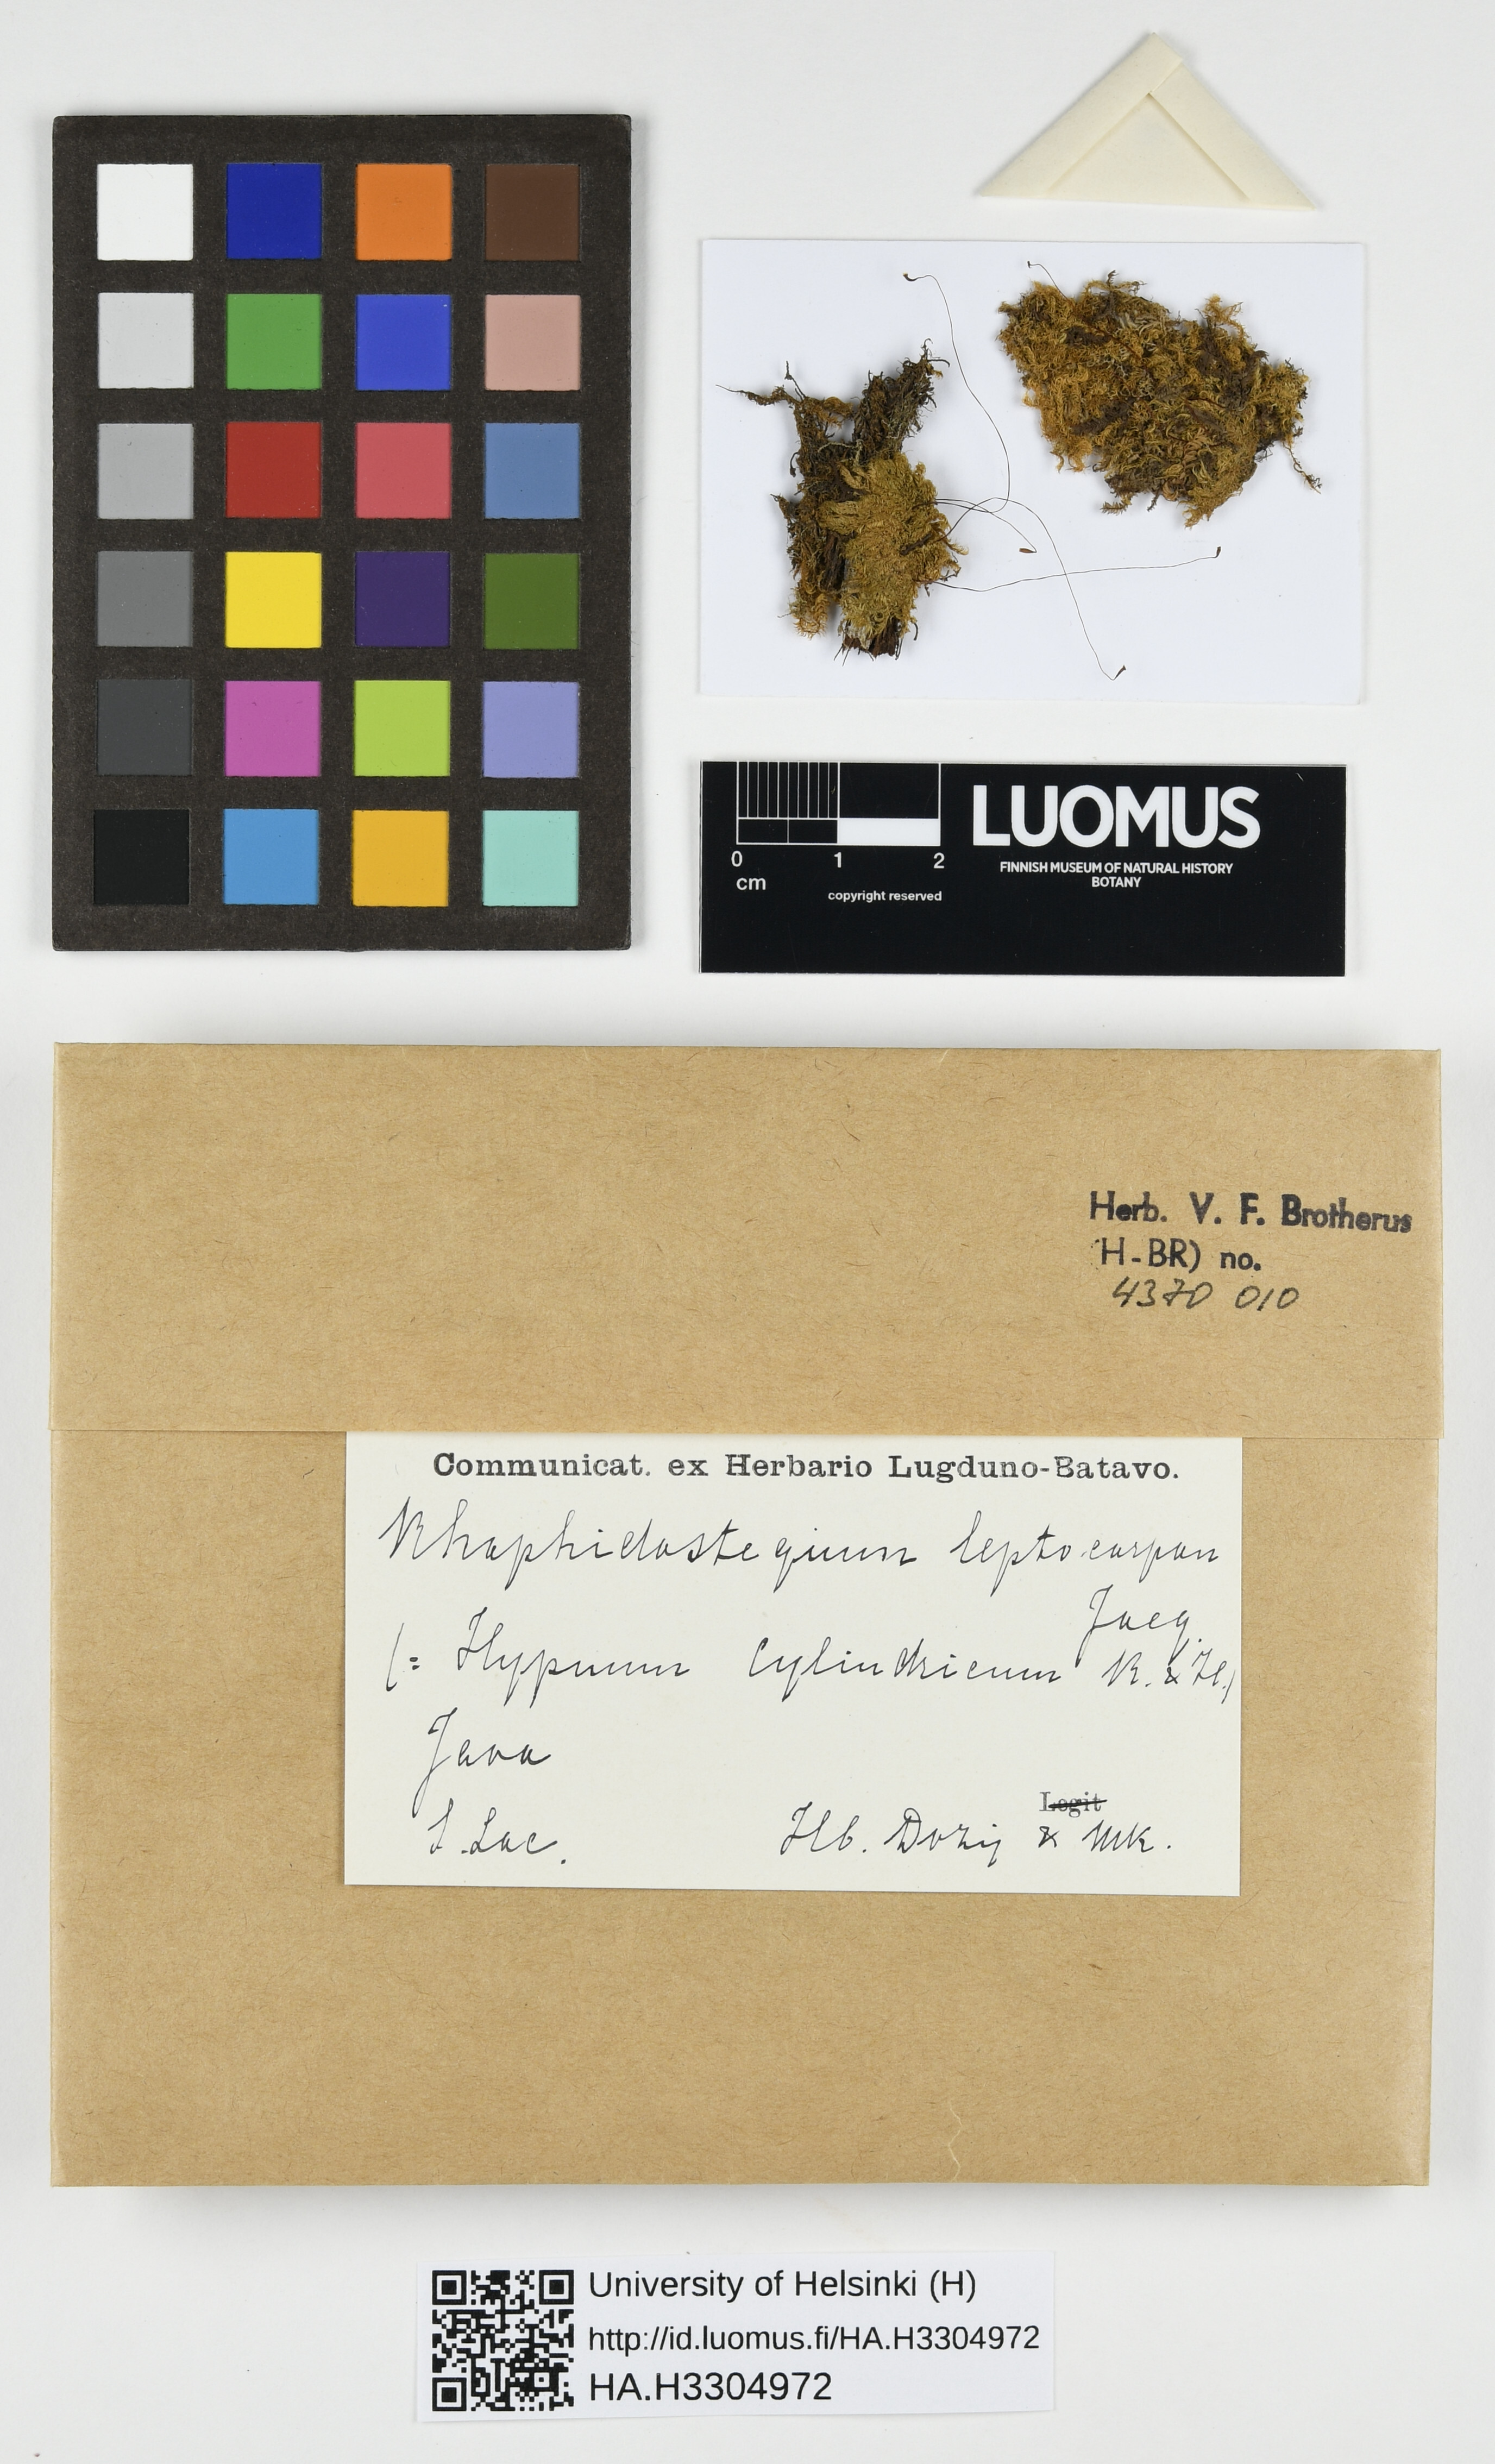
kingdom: Plantae
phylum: Bryophyta
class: Bryopsida
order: Hypnales
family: Sematophyllaceae
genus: Warburgiella
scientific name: Warburgiella leptocarpos
